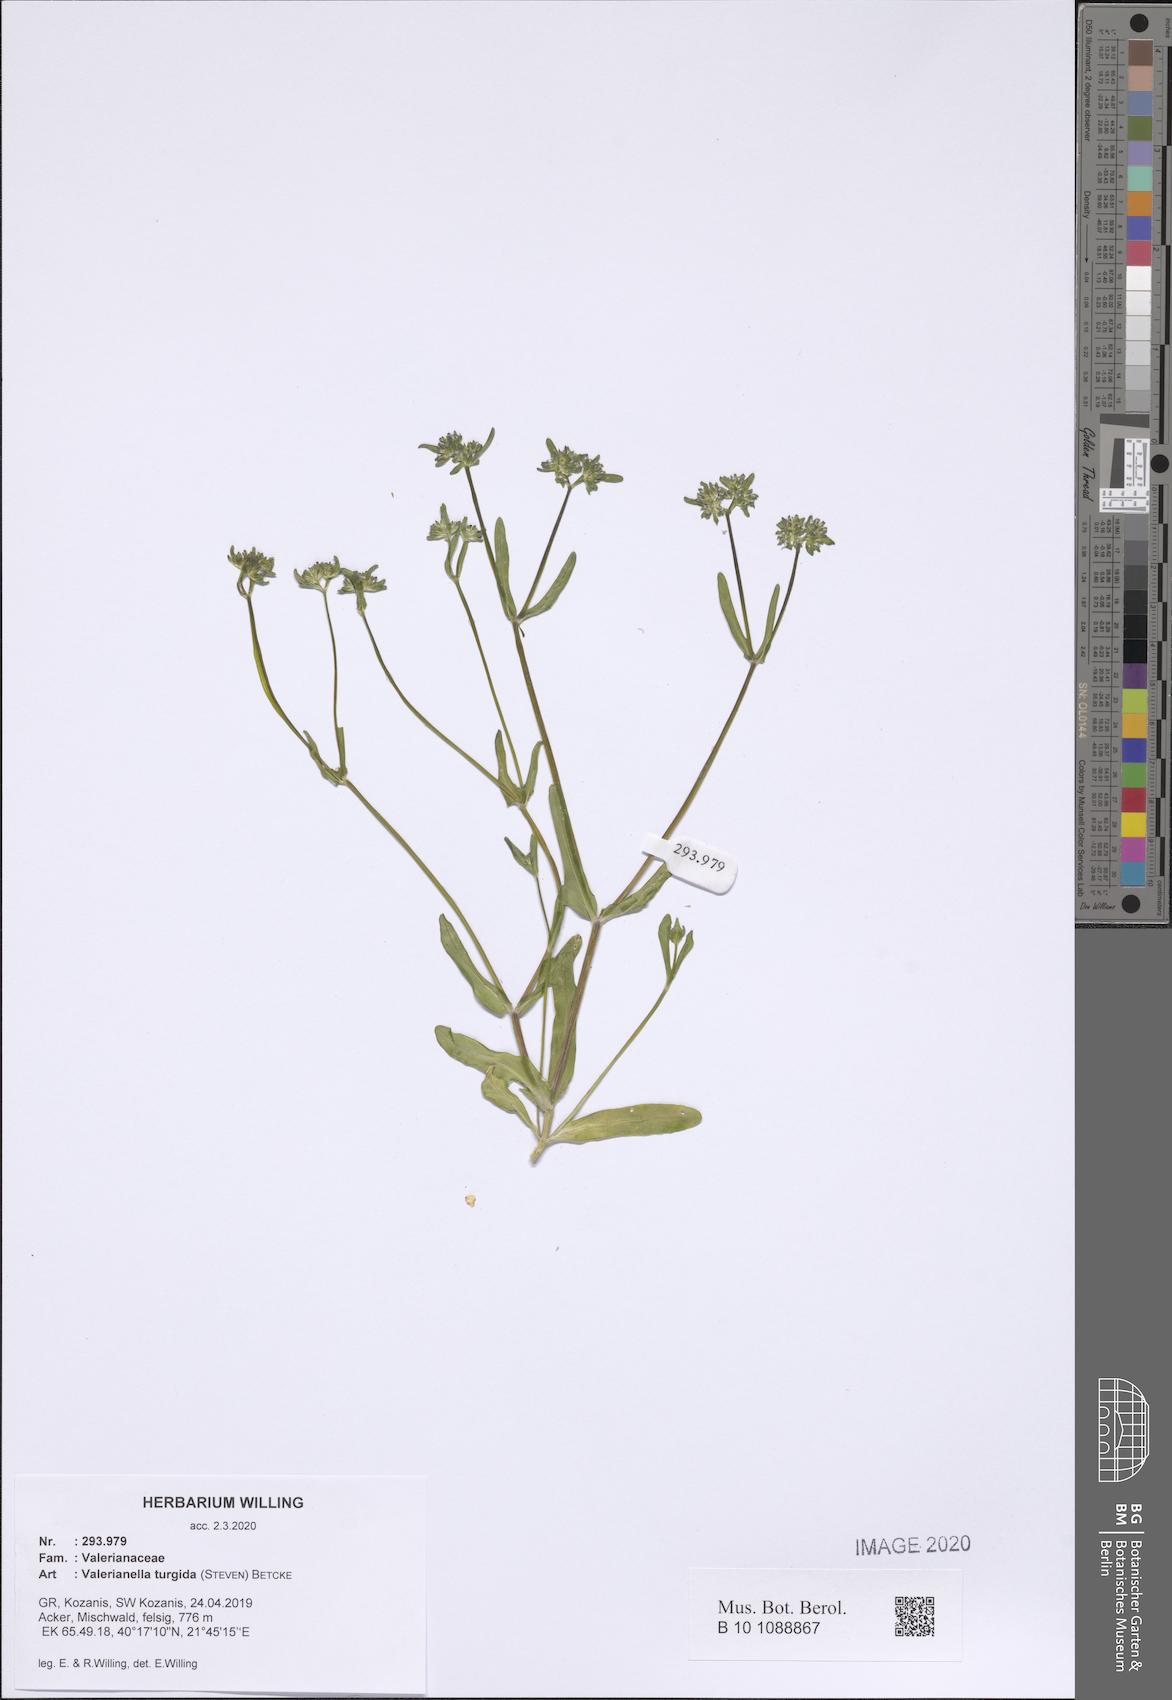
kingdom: Plantae
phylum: Tracheophyta
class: Magnoliopsida
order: Dipsacales
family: Caprifoliaceae
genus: Valerianella
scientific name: Valerianella turgida
